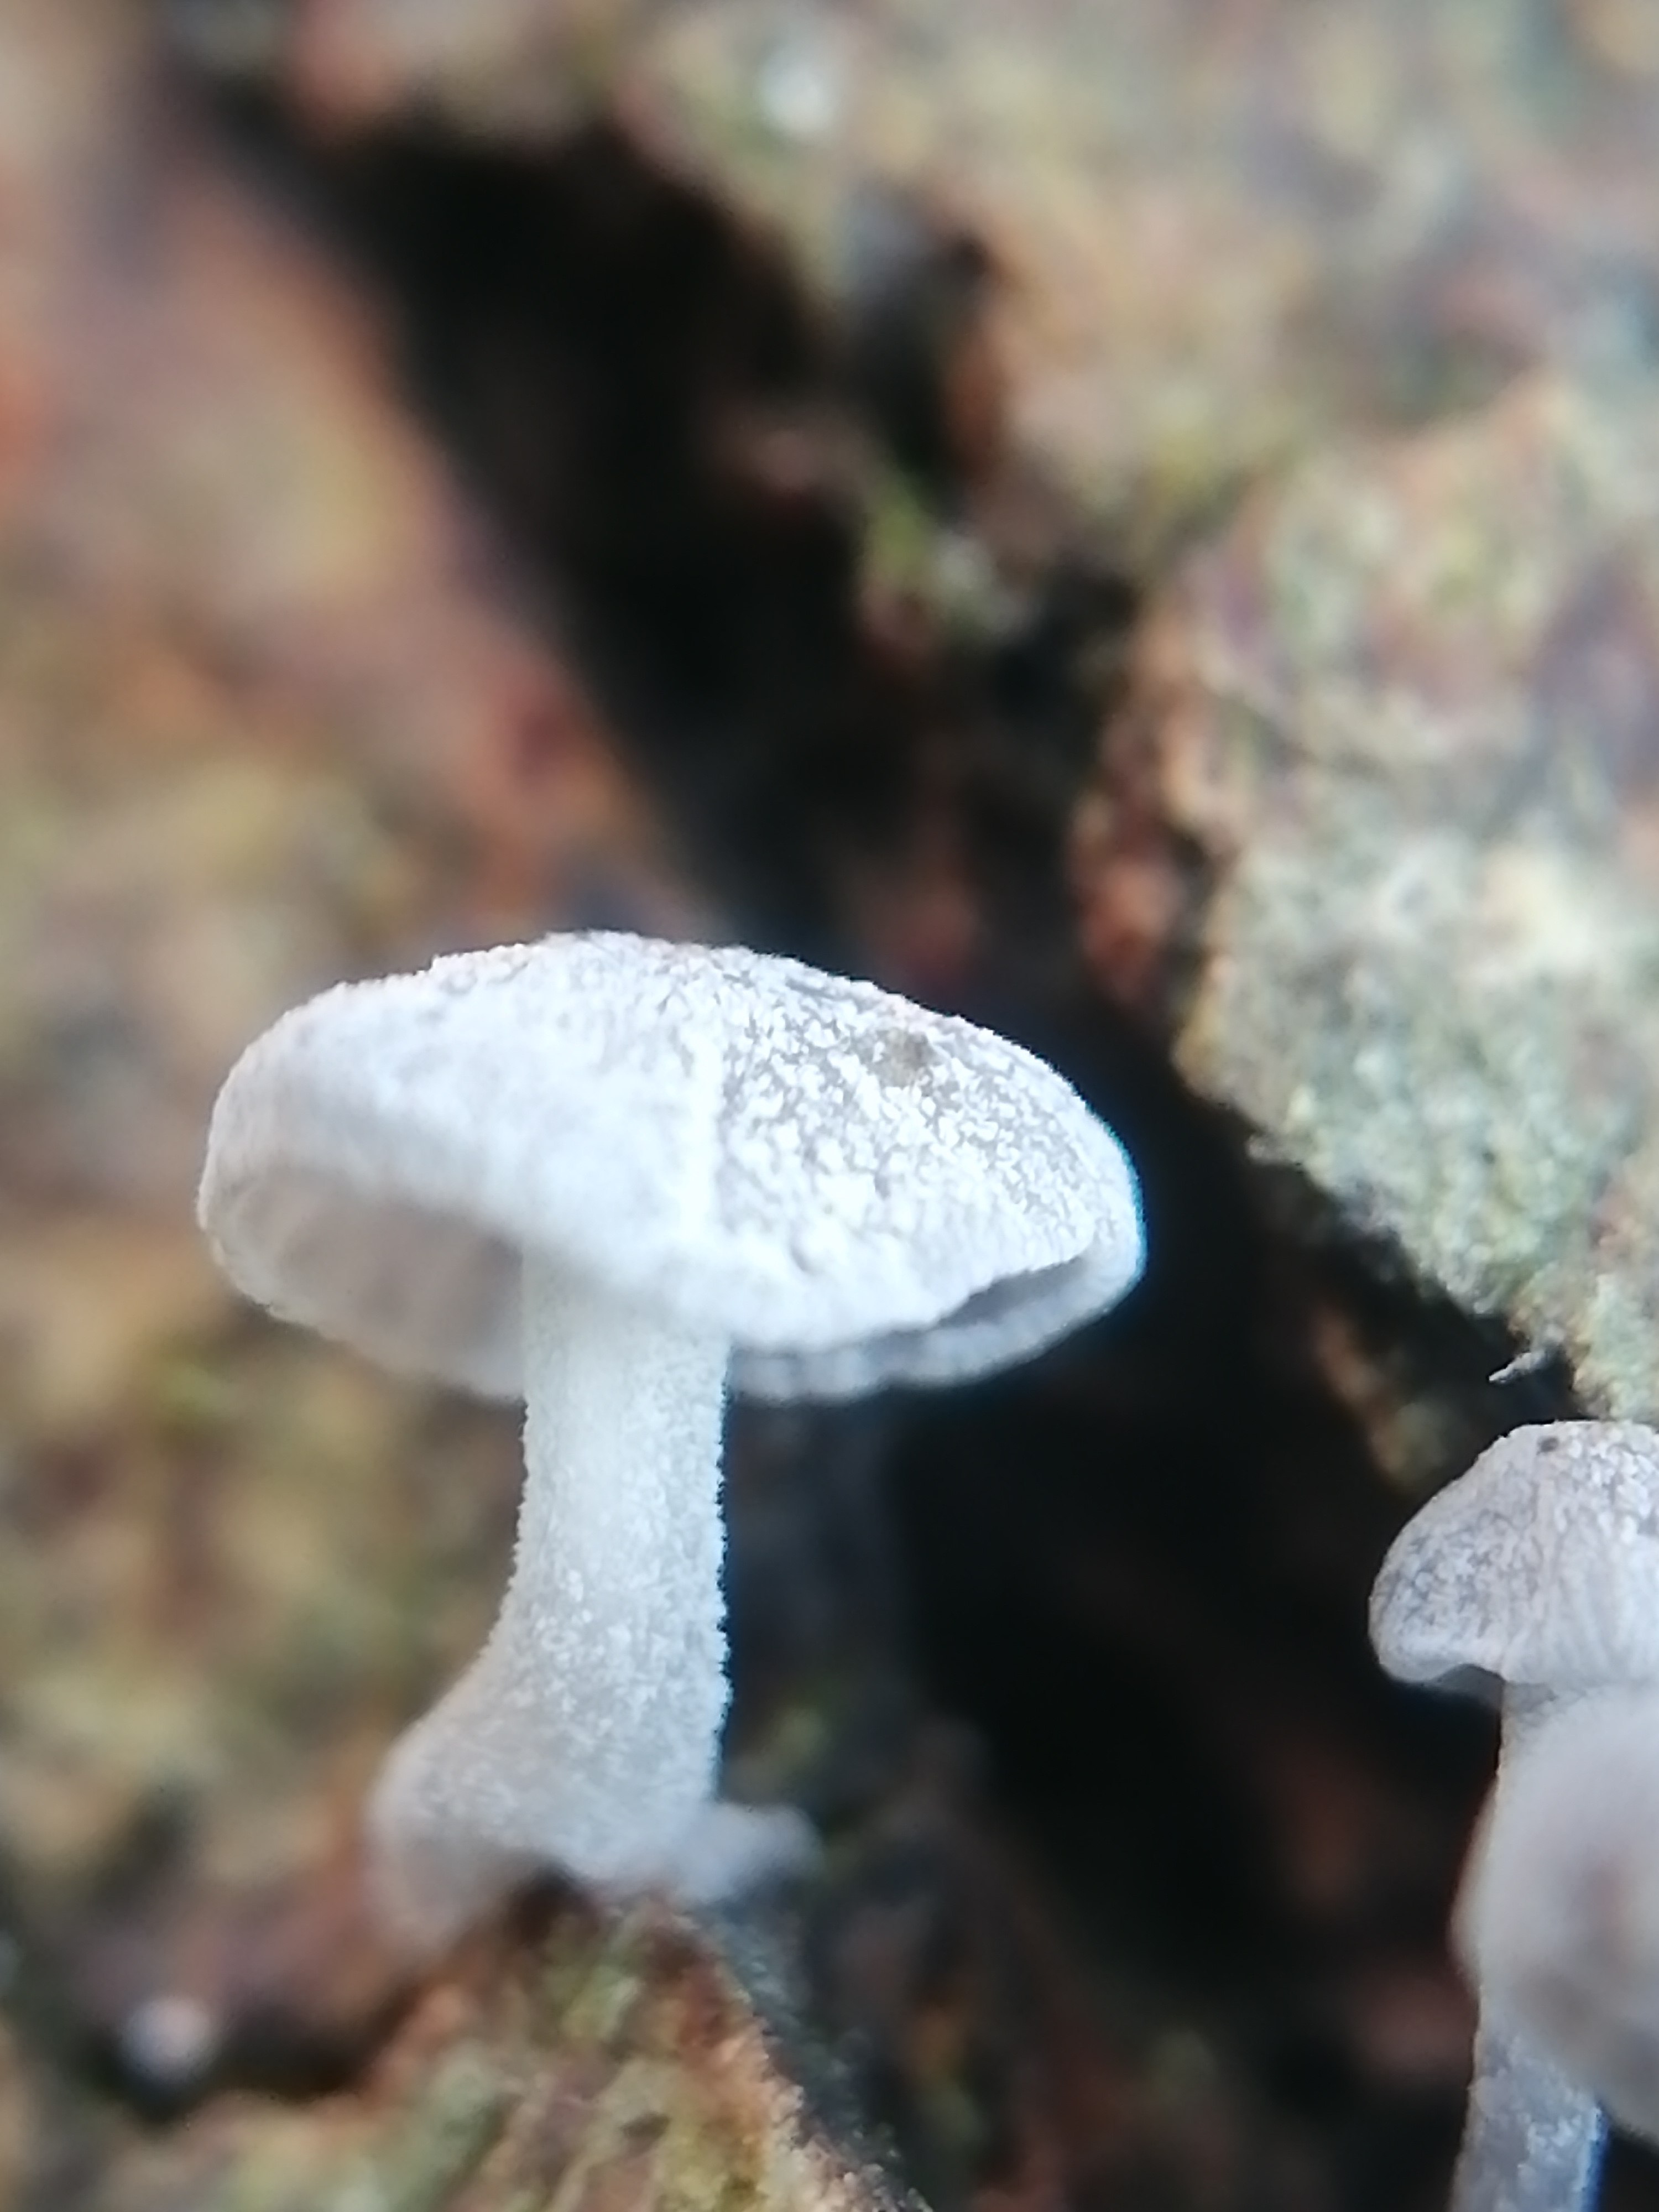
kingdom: Fungi
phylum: Basidiomycota
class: Agaricomycetes
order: Agaricales
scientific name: Agaricales
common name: champignonordenen
